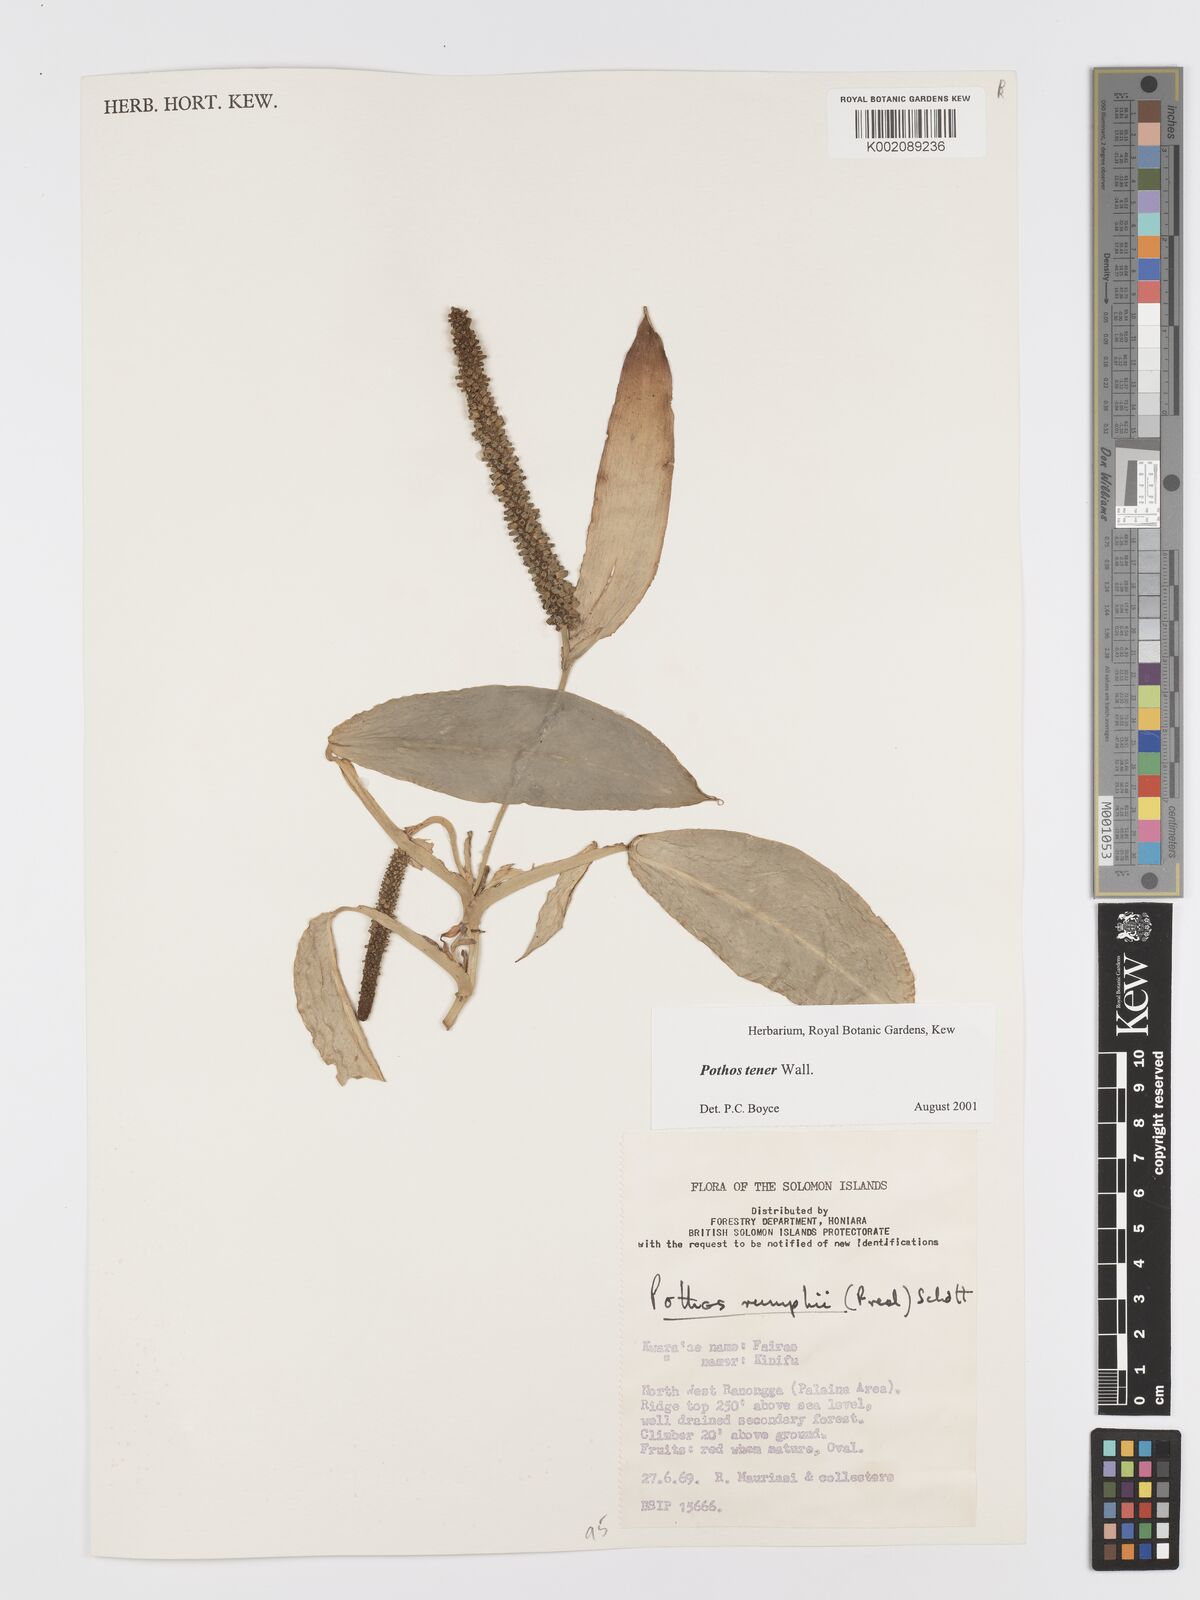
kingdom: Plantae
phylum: Tracheophyta
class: Liliopsida
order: Alismatales
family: Araceae
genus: Pothos
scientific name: Pothos tener
